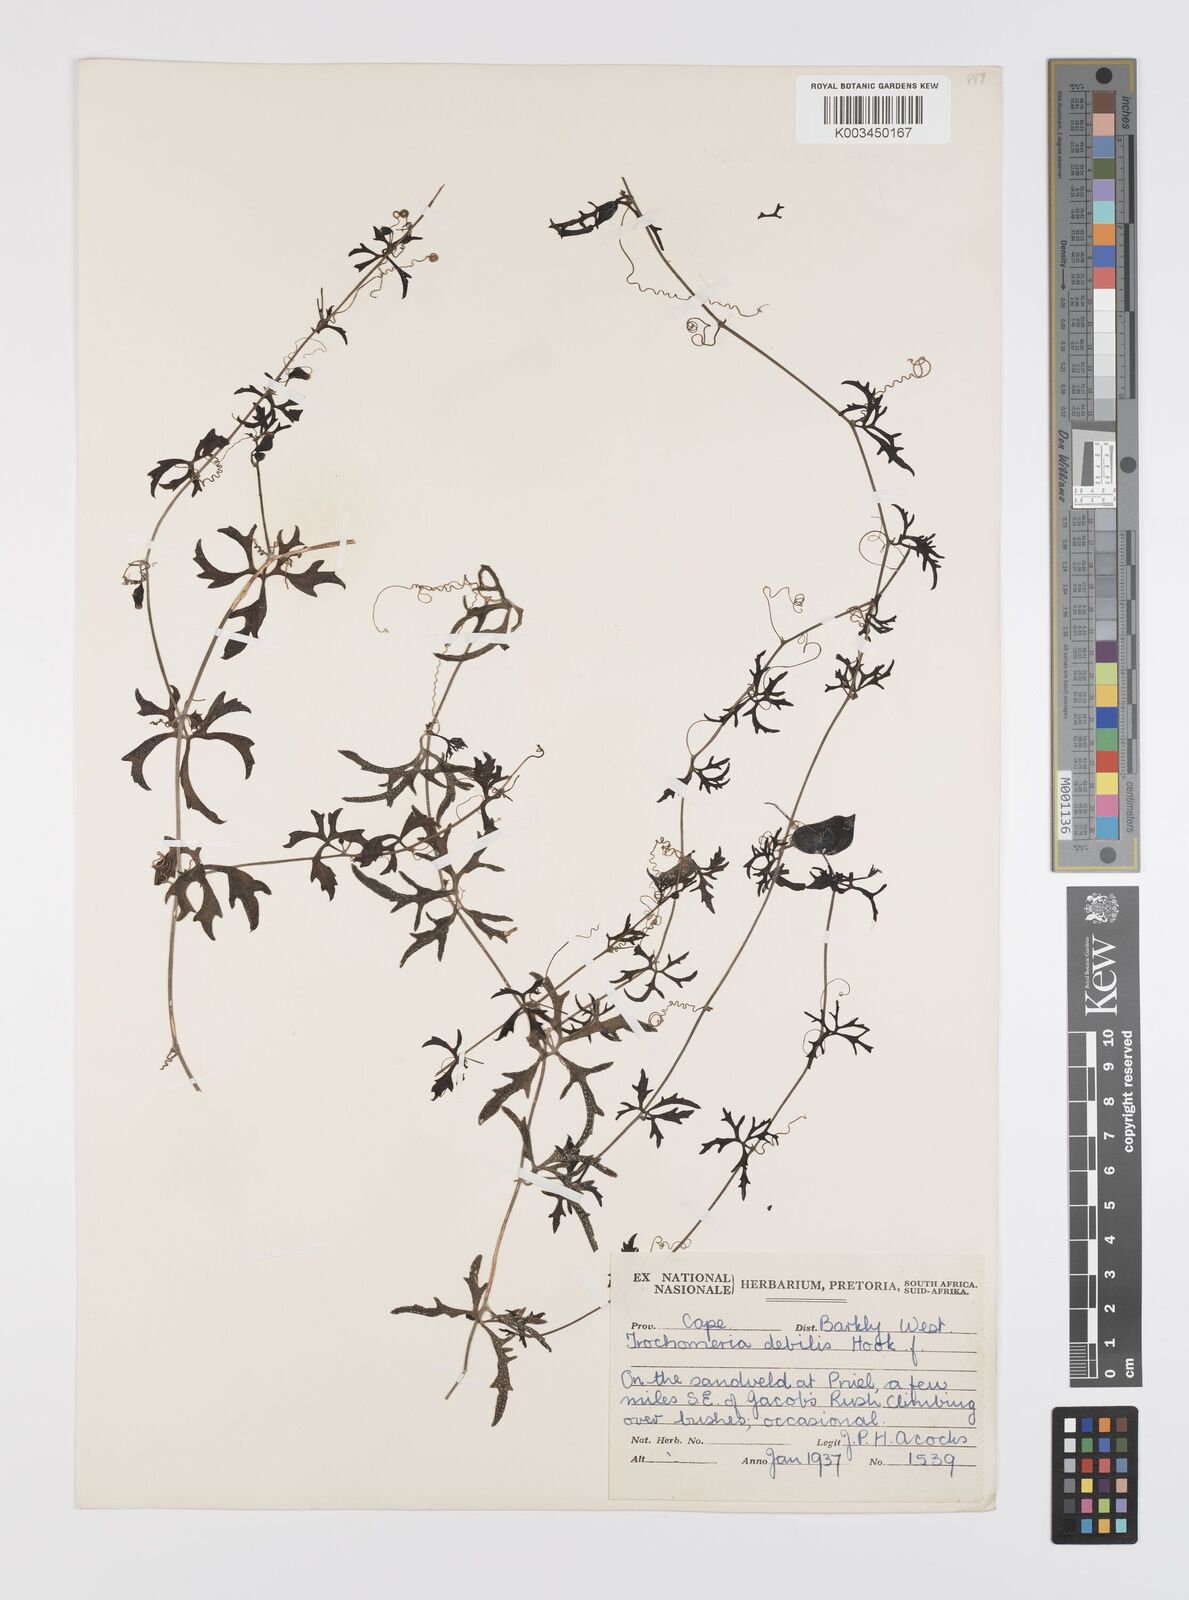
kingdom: Plantae
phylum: Tracheophyta
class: Magnoliopsida
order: Cucurbitales
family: Cucurbitaceae
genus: Trochomeria
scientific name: Trochomeria debilis
